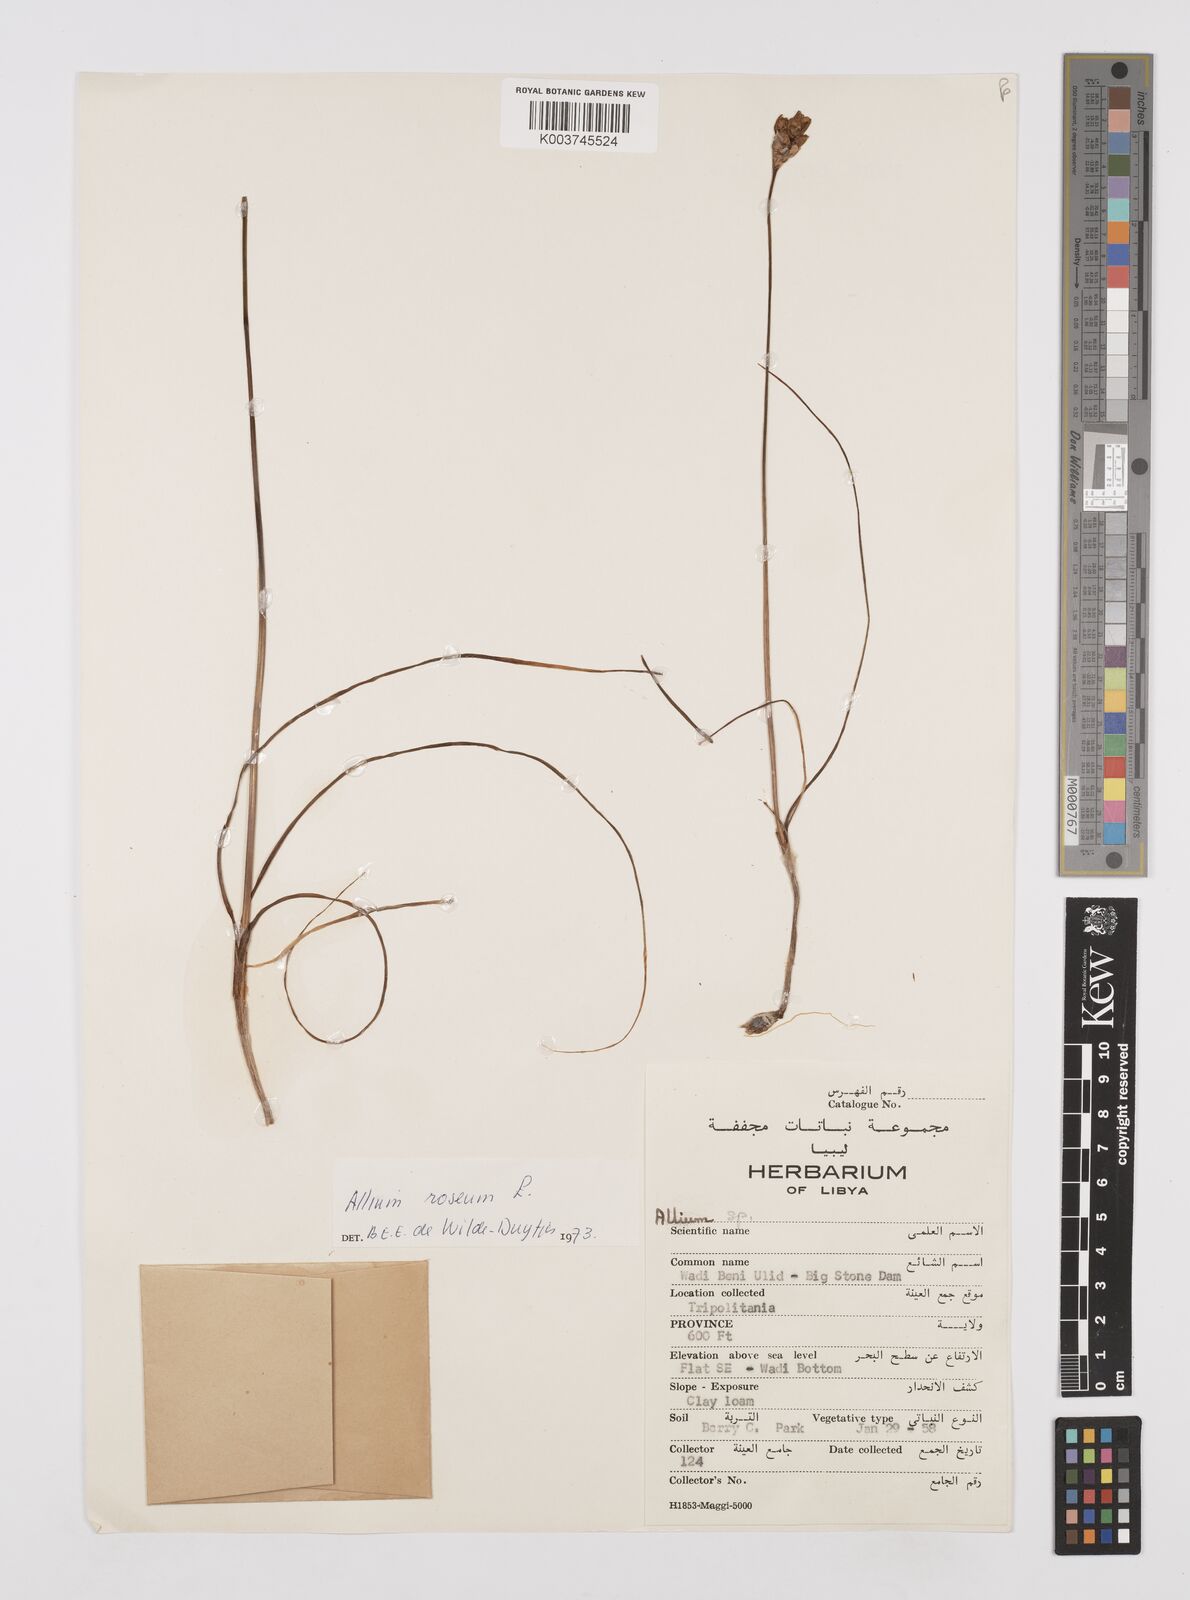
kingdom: Plantae
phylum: Tracheophyta
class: Liliopsida
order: Asparagales
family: Amaryllidaceae
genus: Allium
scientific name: Allium roseum
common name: Rosy garlic
